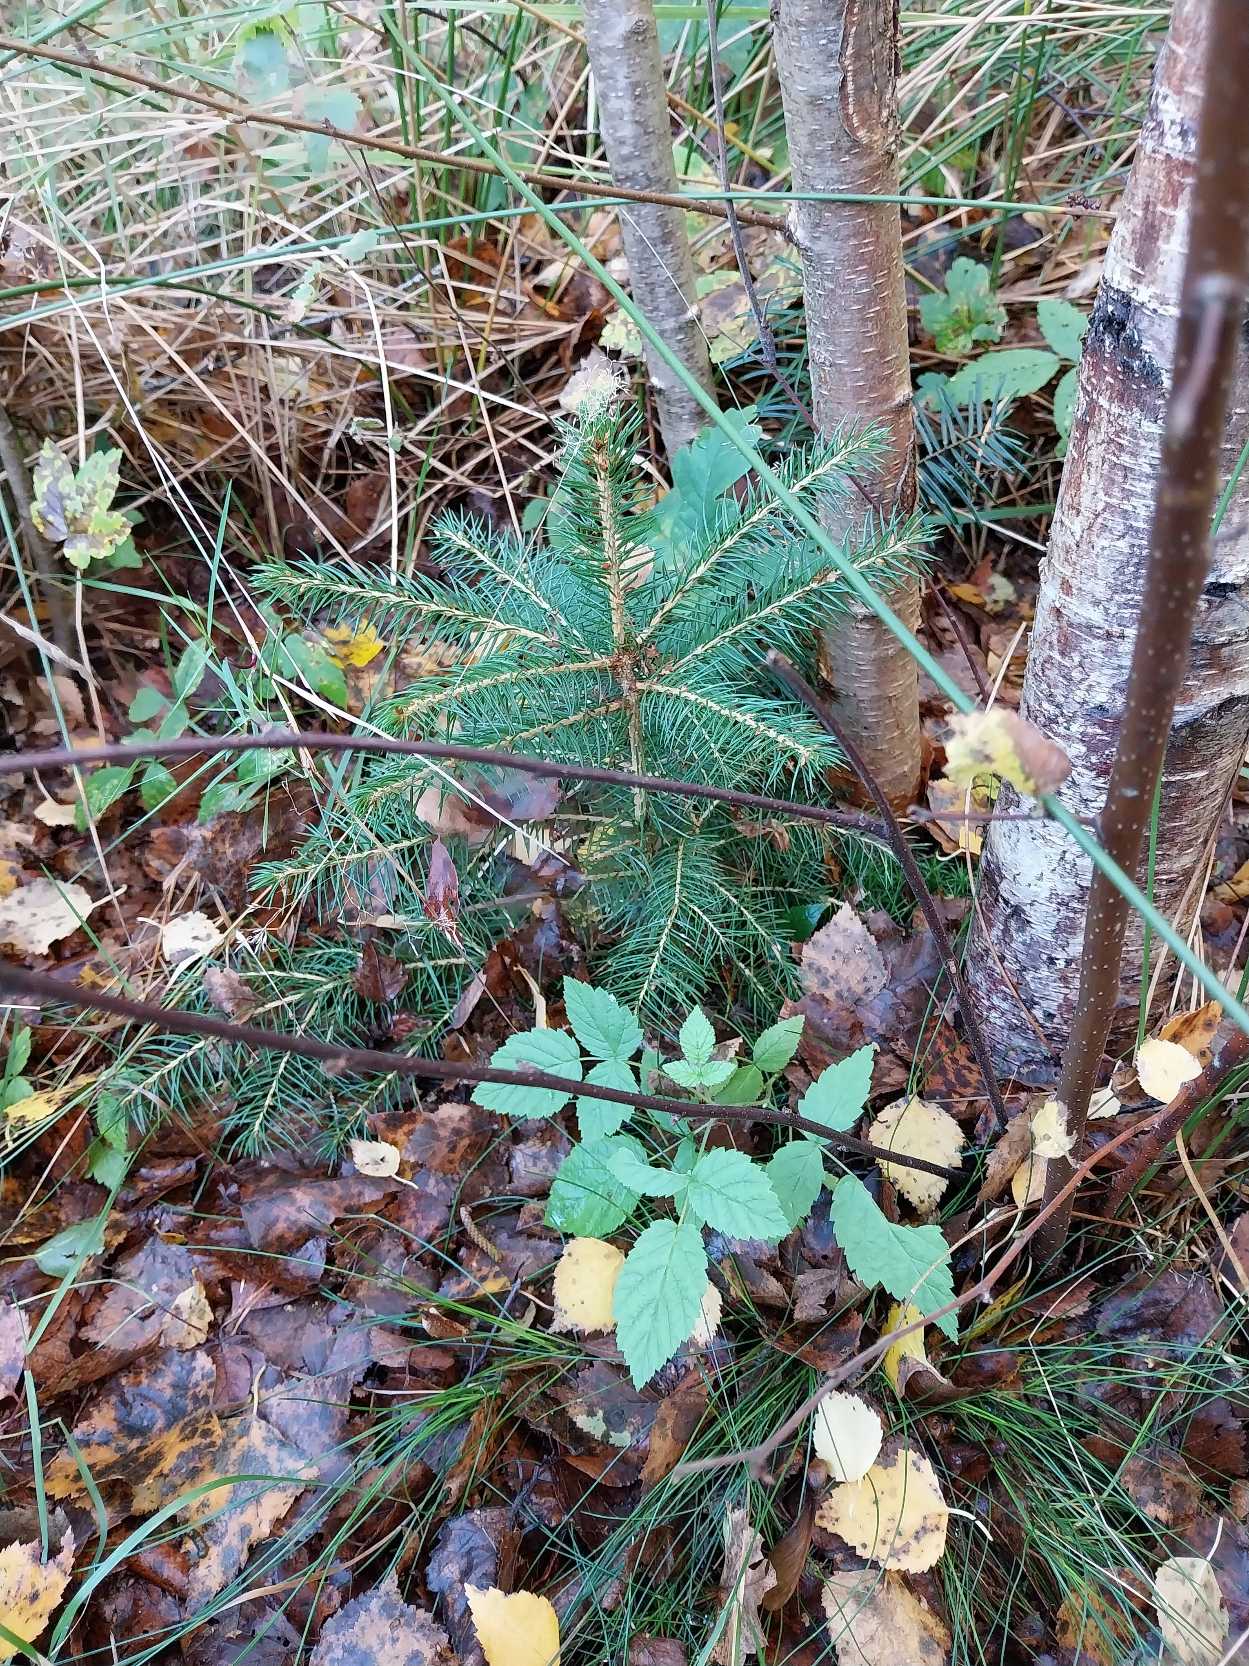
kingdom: Plantae
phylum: Tracheophyta
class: Pinopsida
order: Pinales
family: Pinaceae
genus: Picea
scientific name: Picea abies
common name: Rød-gran
